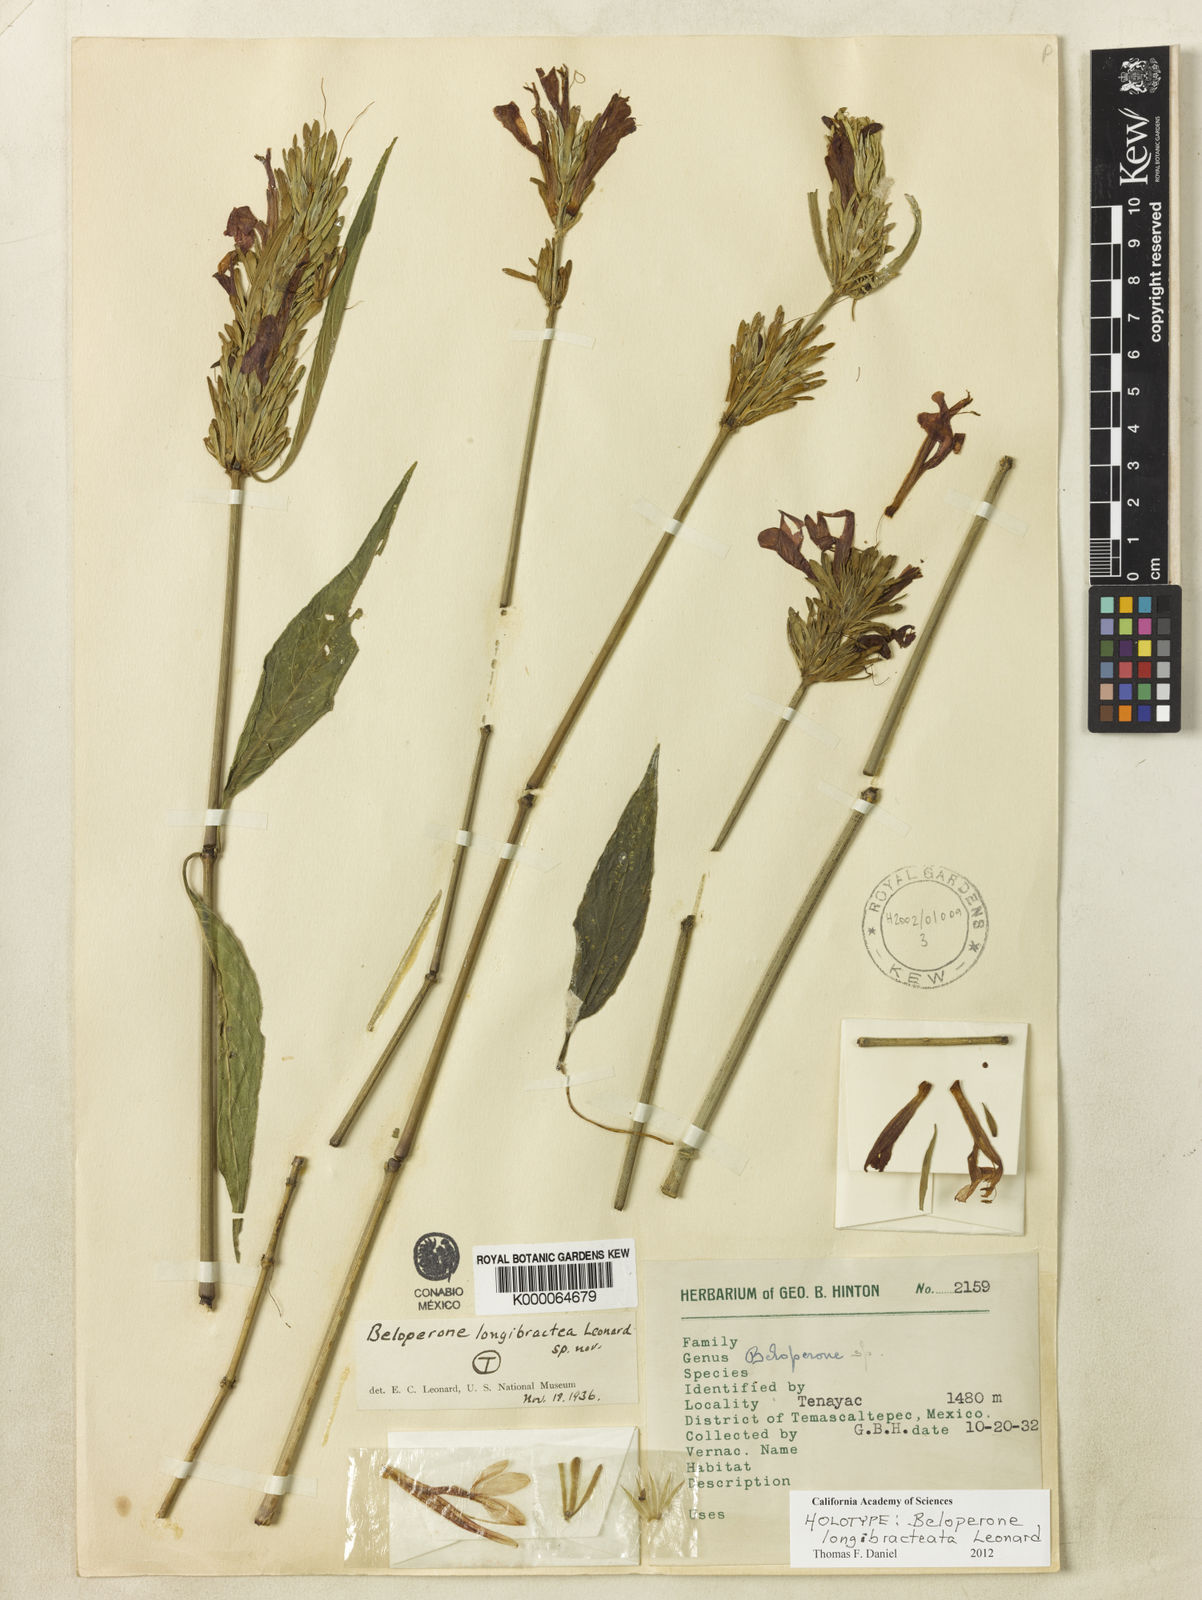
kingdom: Plantae
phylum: Tracheophyta
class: Magnoliopsida
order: Lamiales
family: Acanthaceae
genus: Justicia
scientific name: Justicia Beloperone longibracteata
